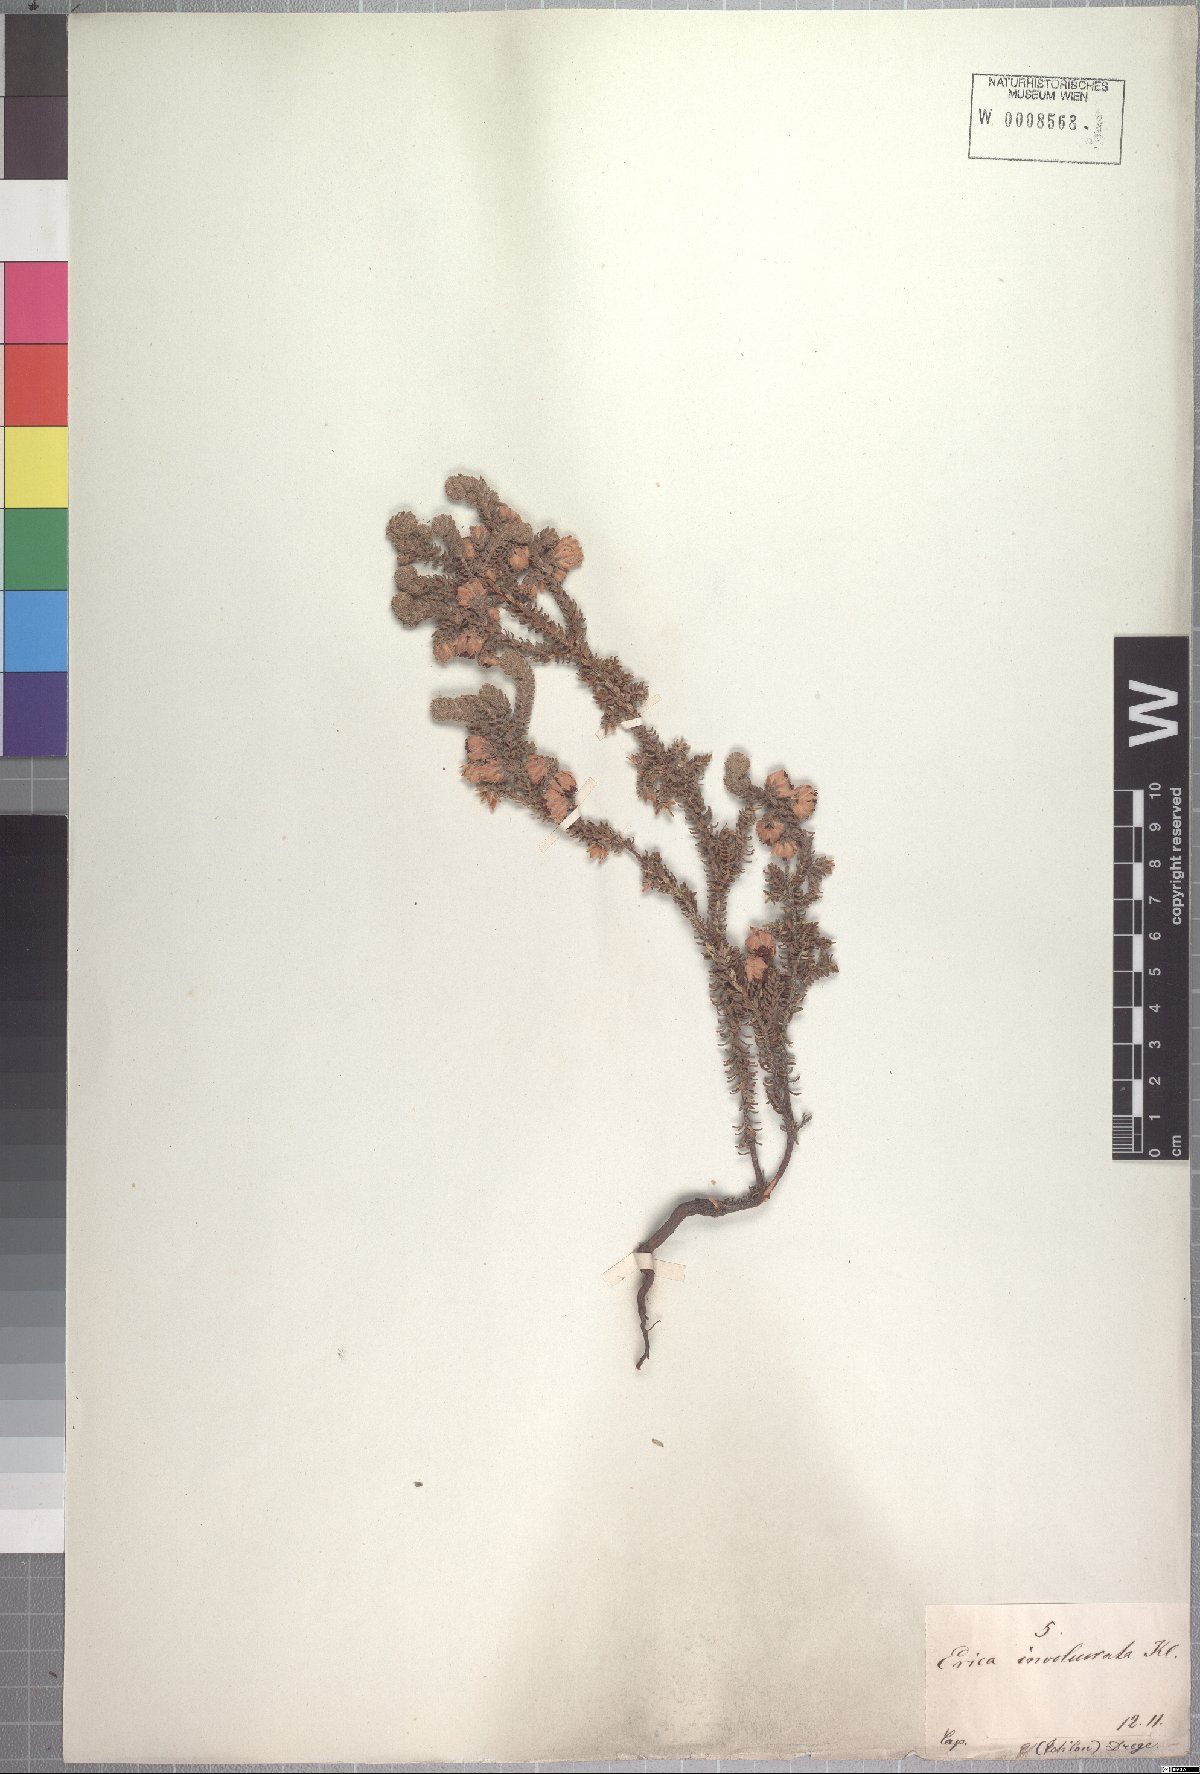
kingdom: Plantae
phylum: Tracheophyta
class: Magnoliopsida
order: Ericales
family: Ericaceae
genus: Erica
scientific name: Erica involucrata
